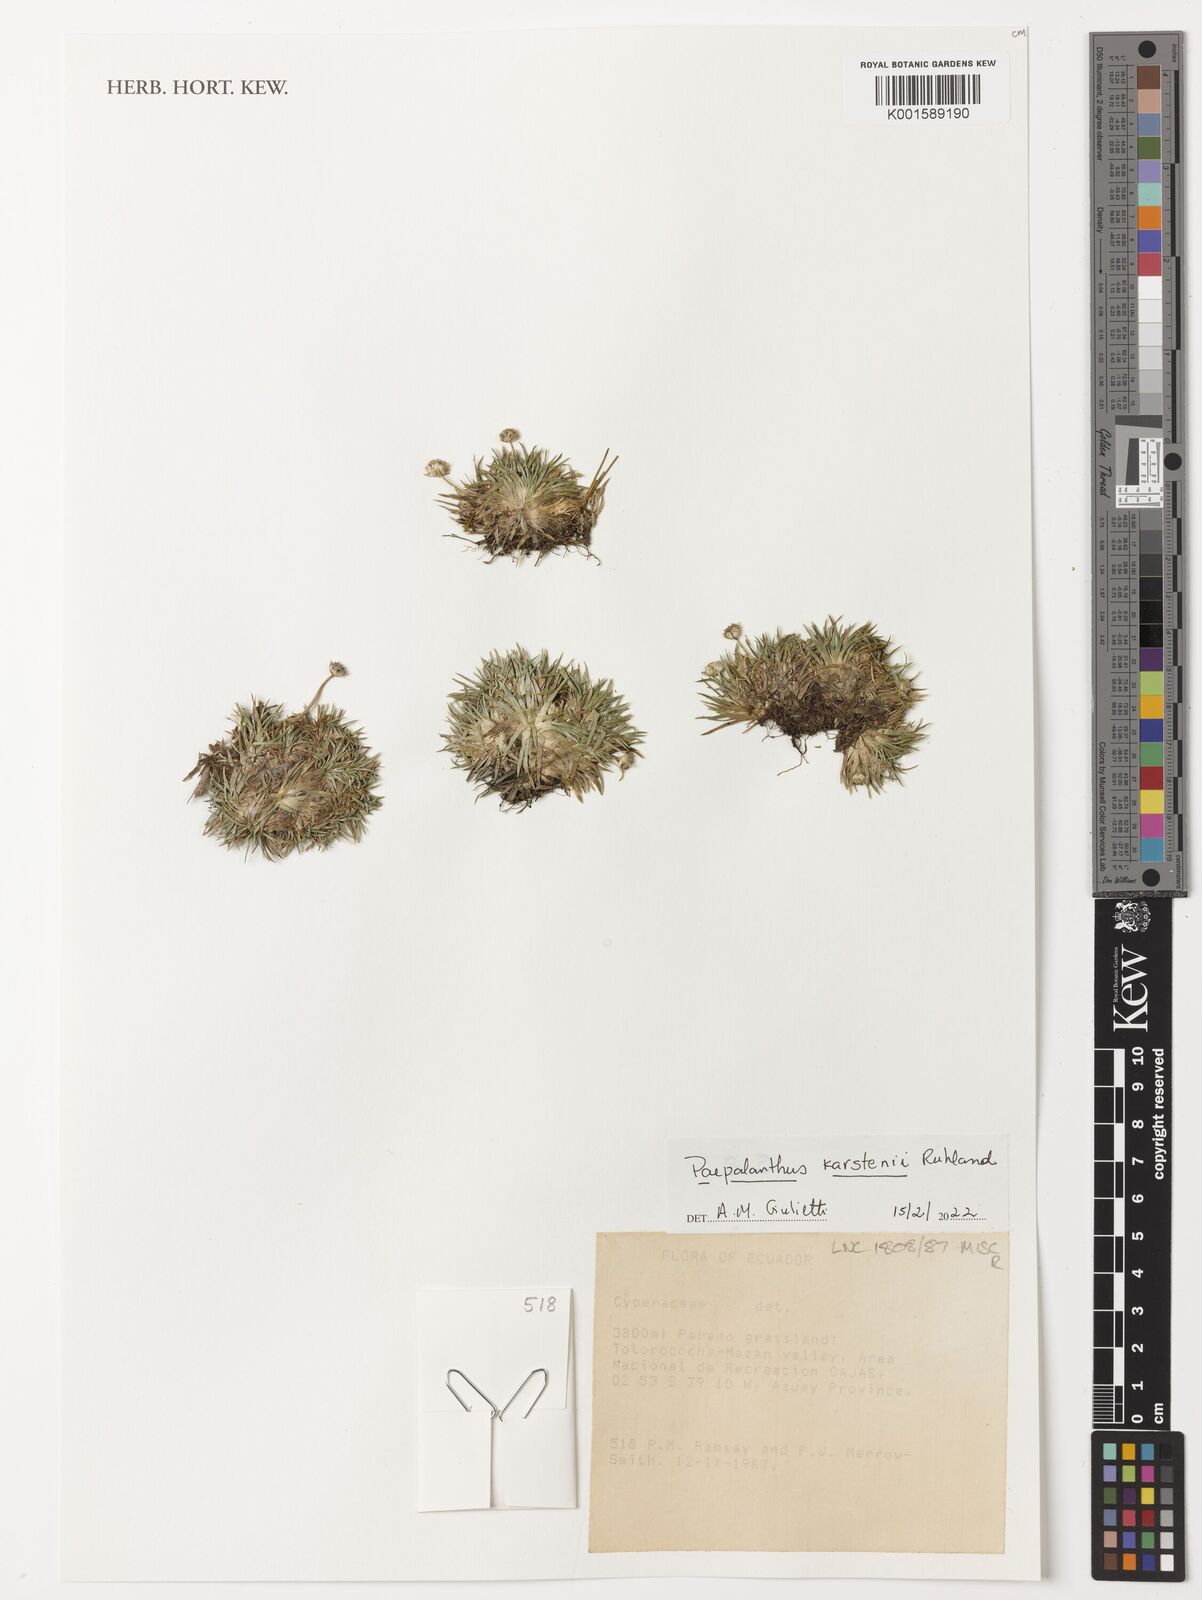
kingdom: Plantae
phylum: Tracheophyta
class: Liliopsida
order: Poales
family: Eriocaulaceae
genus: Paepalanthus
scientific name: Paepalanthus karstenii
